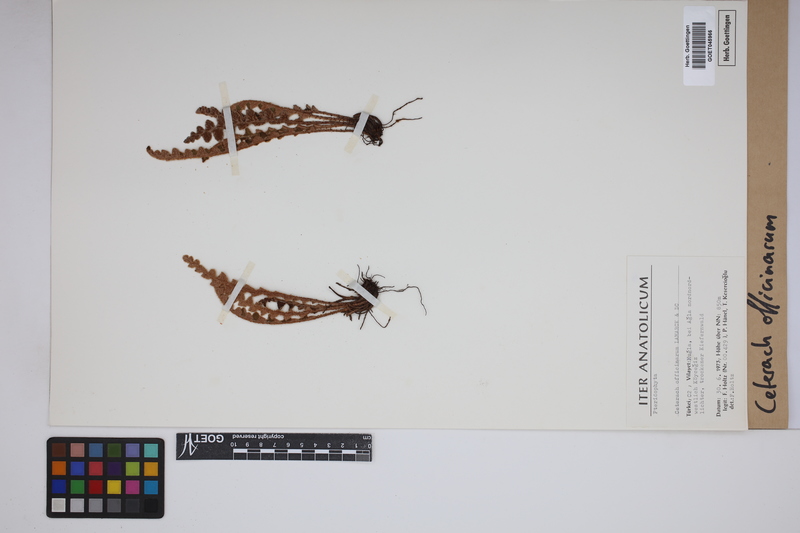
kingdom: Plantae
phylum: Tracheophyta
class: Polypodiopsida
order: Polypodiales
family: Aspleniaceae
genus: Asplenium
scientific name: Asplenium ceterach
